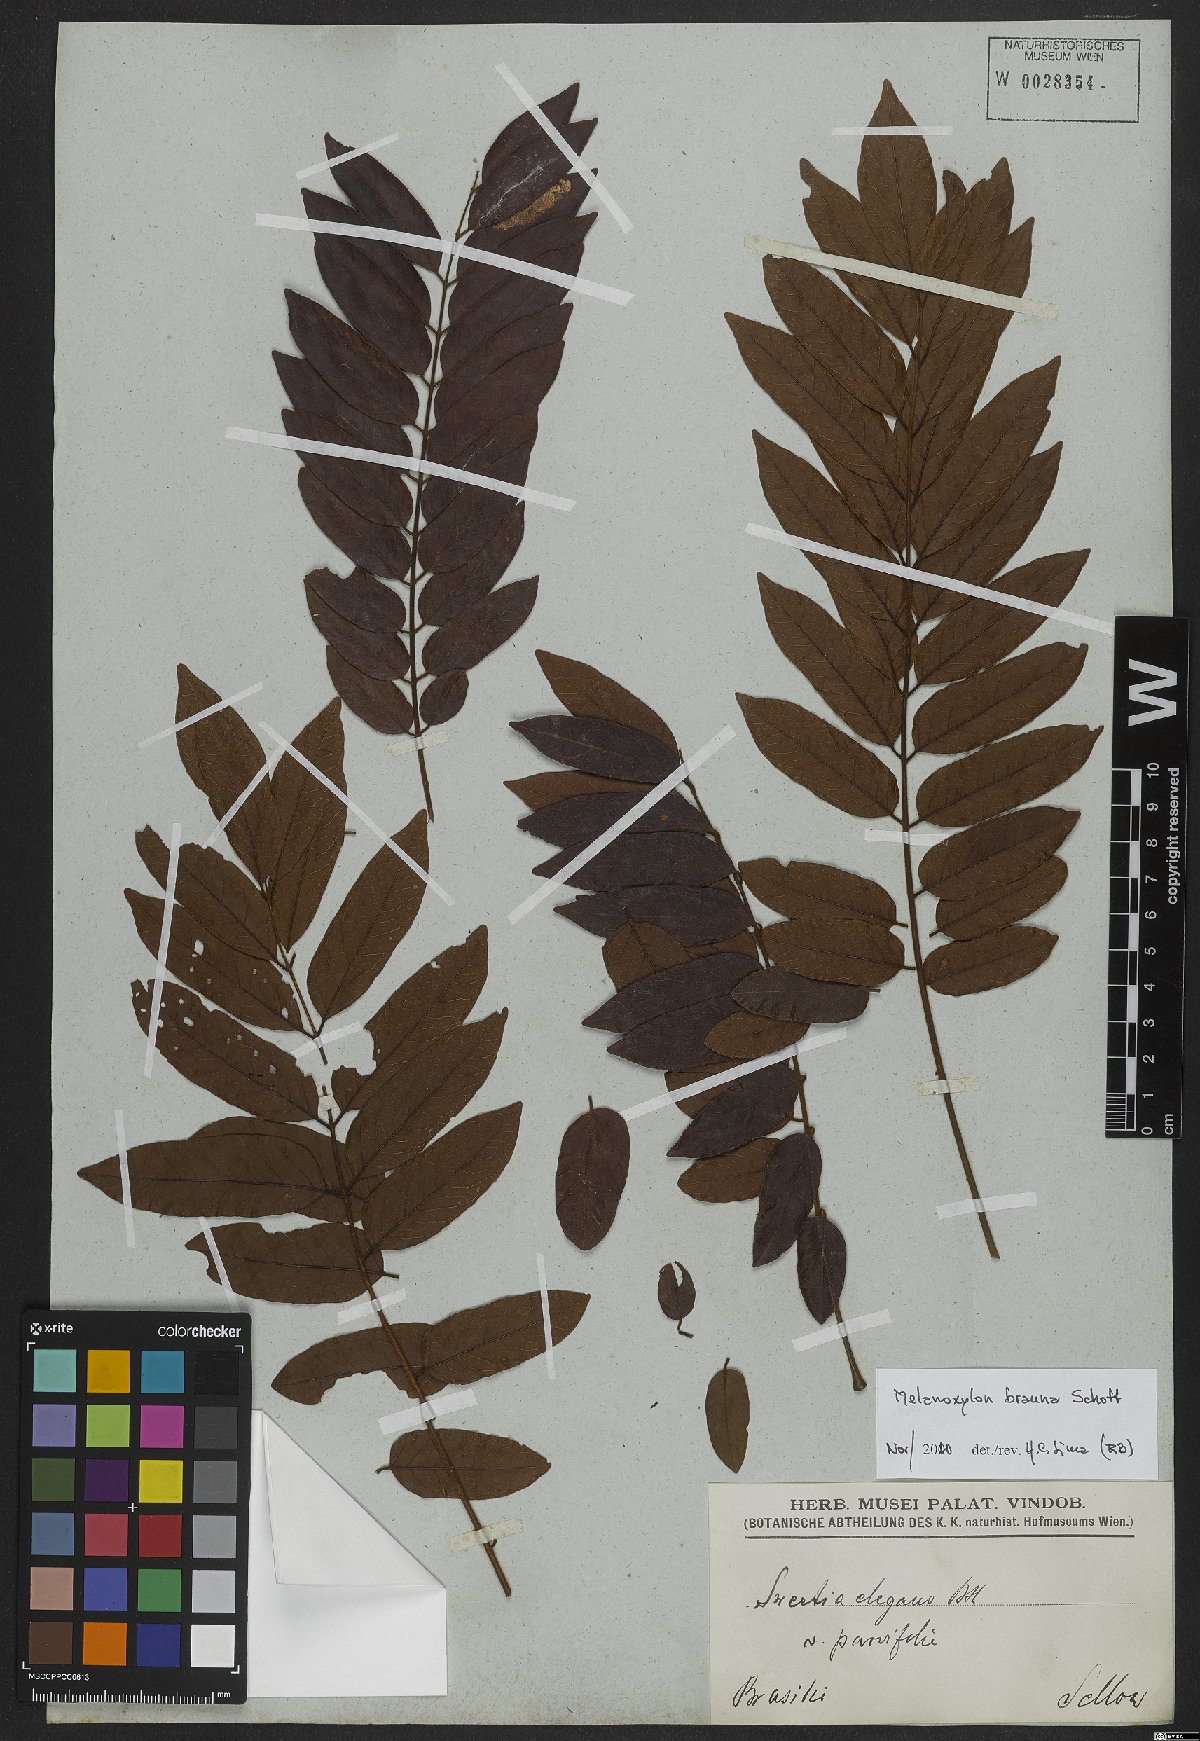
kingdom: Plantae
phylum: Tracheophyta
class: Magnoliopsida
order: Fabales
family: Fabaceae
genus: Melanoxylon
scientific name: Melanoxylon brauna
